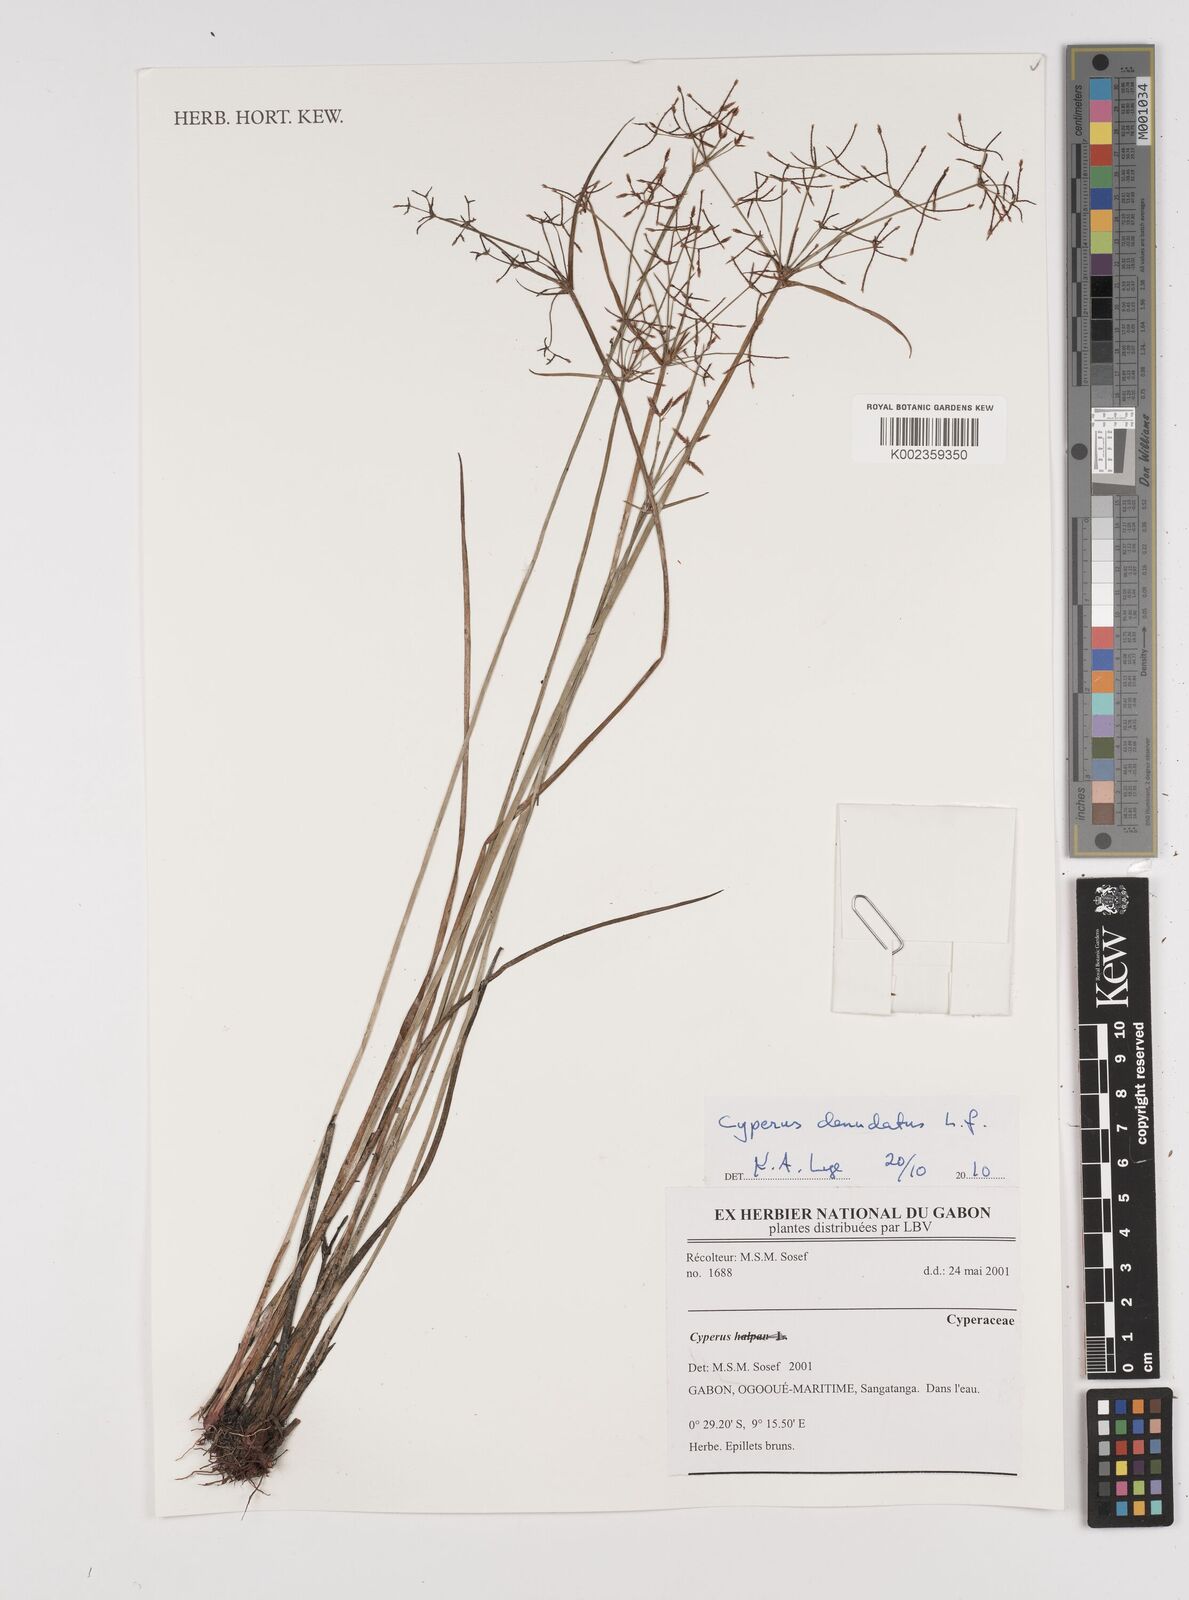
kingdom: Plantae
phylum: Tracheophyta
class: Liliopsida
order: Poales
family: Cyperaceae
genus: Cyperus
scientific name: Cyperus denudatus
